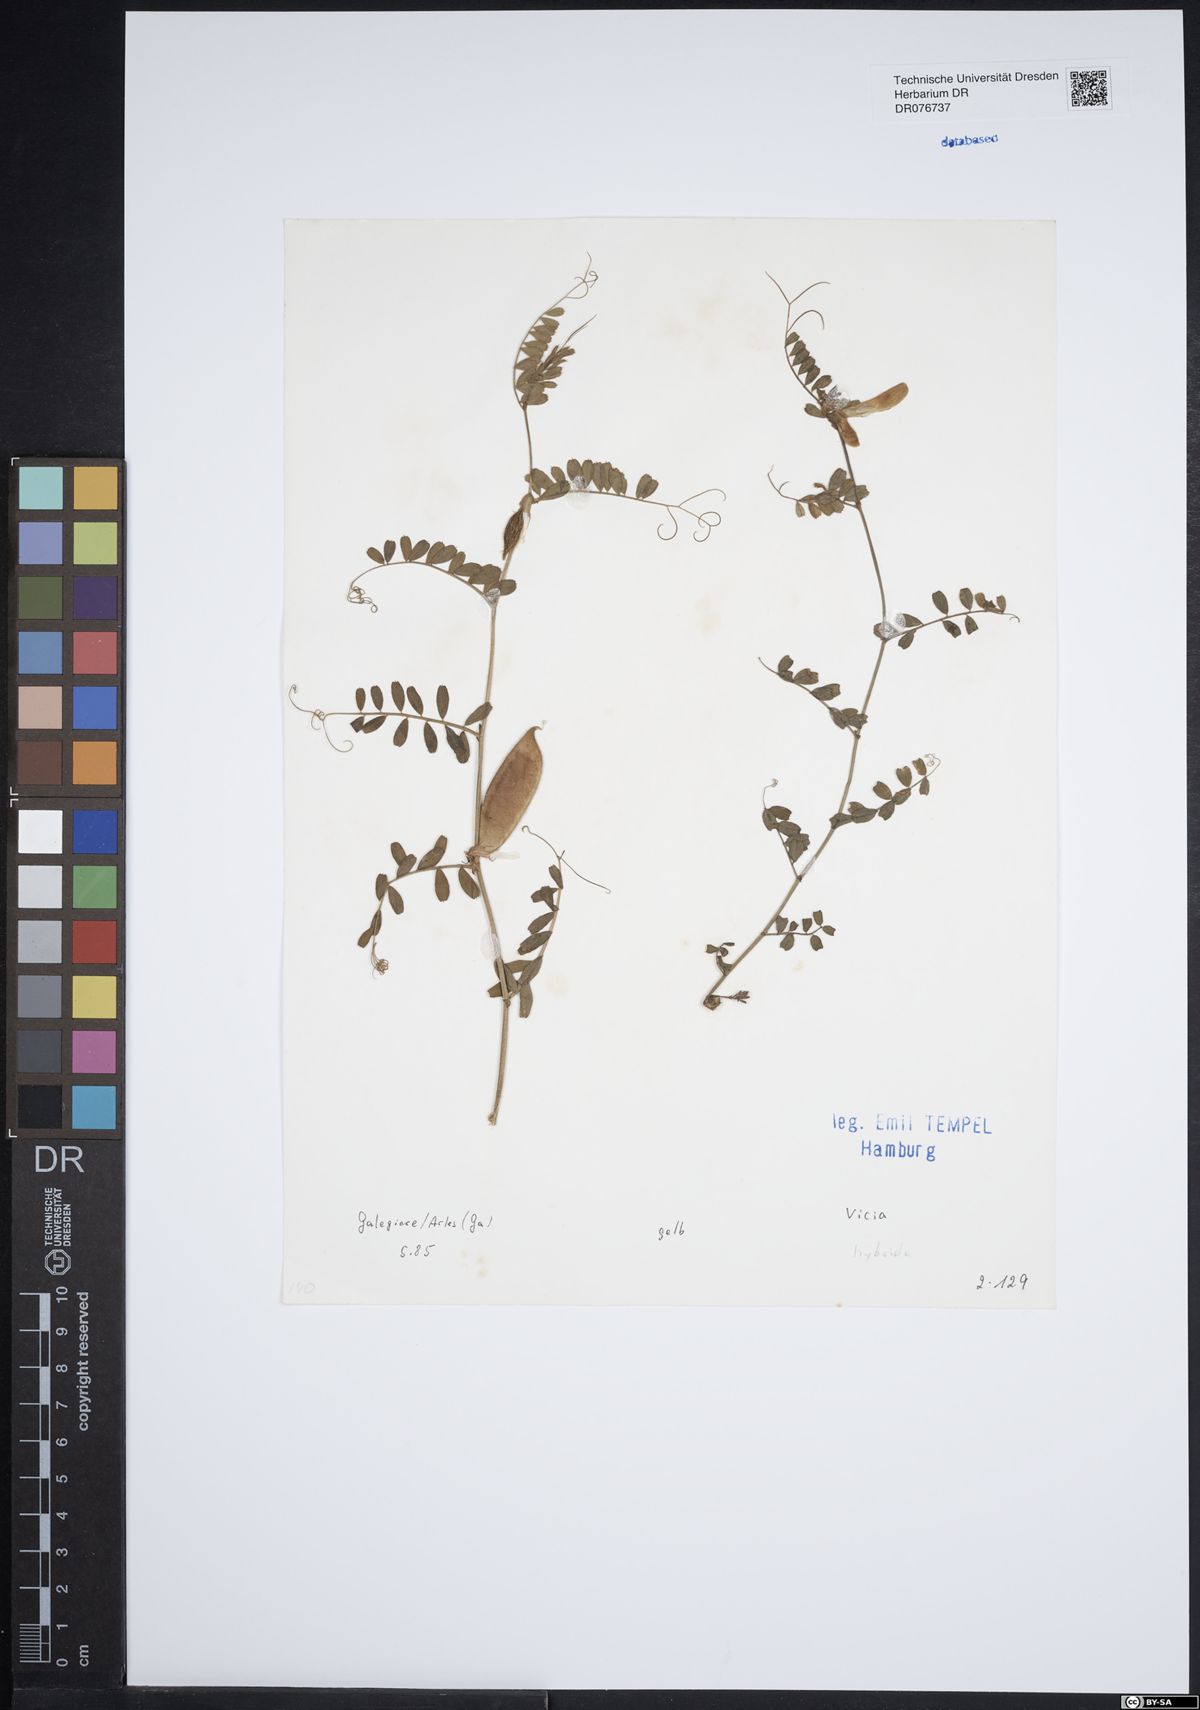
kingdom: Plantae
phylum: Tracheophyta
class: Magnoliopsida
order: Fabales
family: Fabaceae
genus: Vicia
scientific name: Vicia hybrida
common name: Hairy yellow vetch
